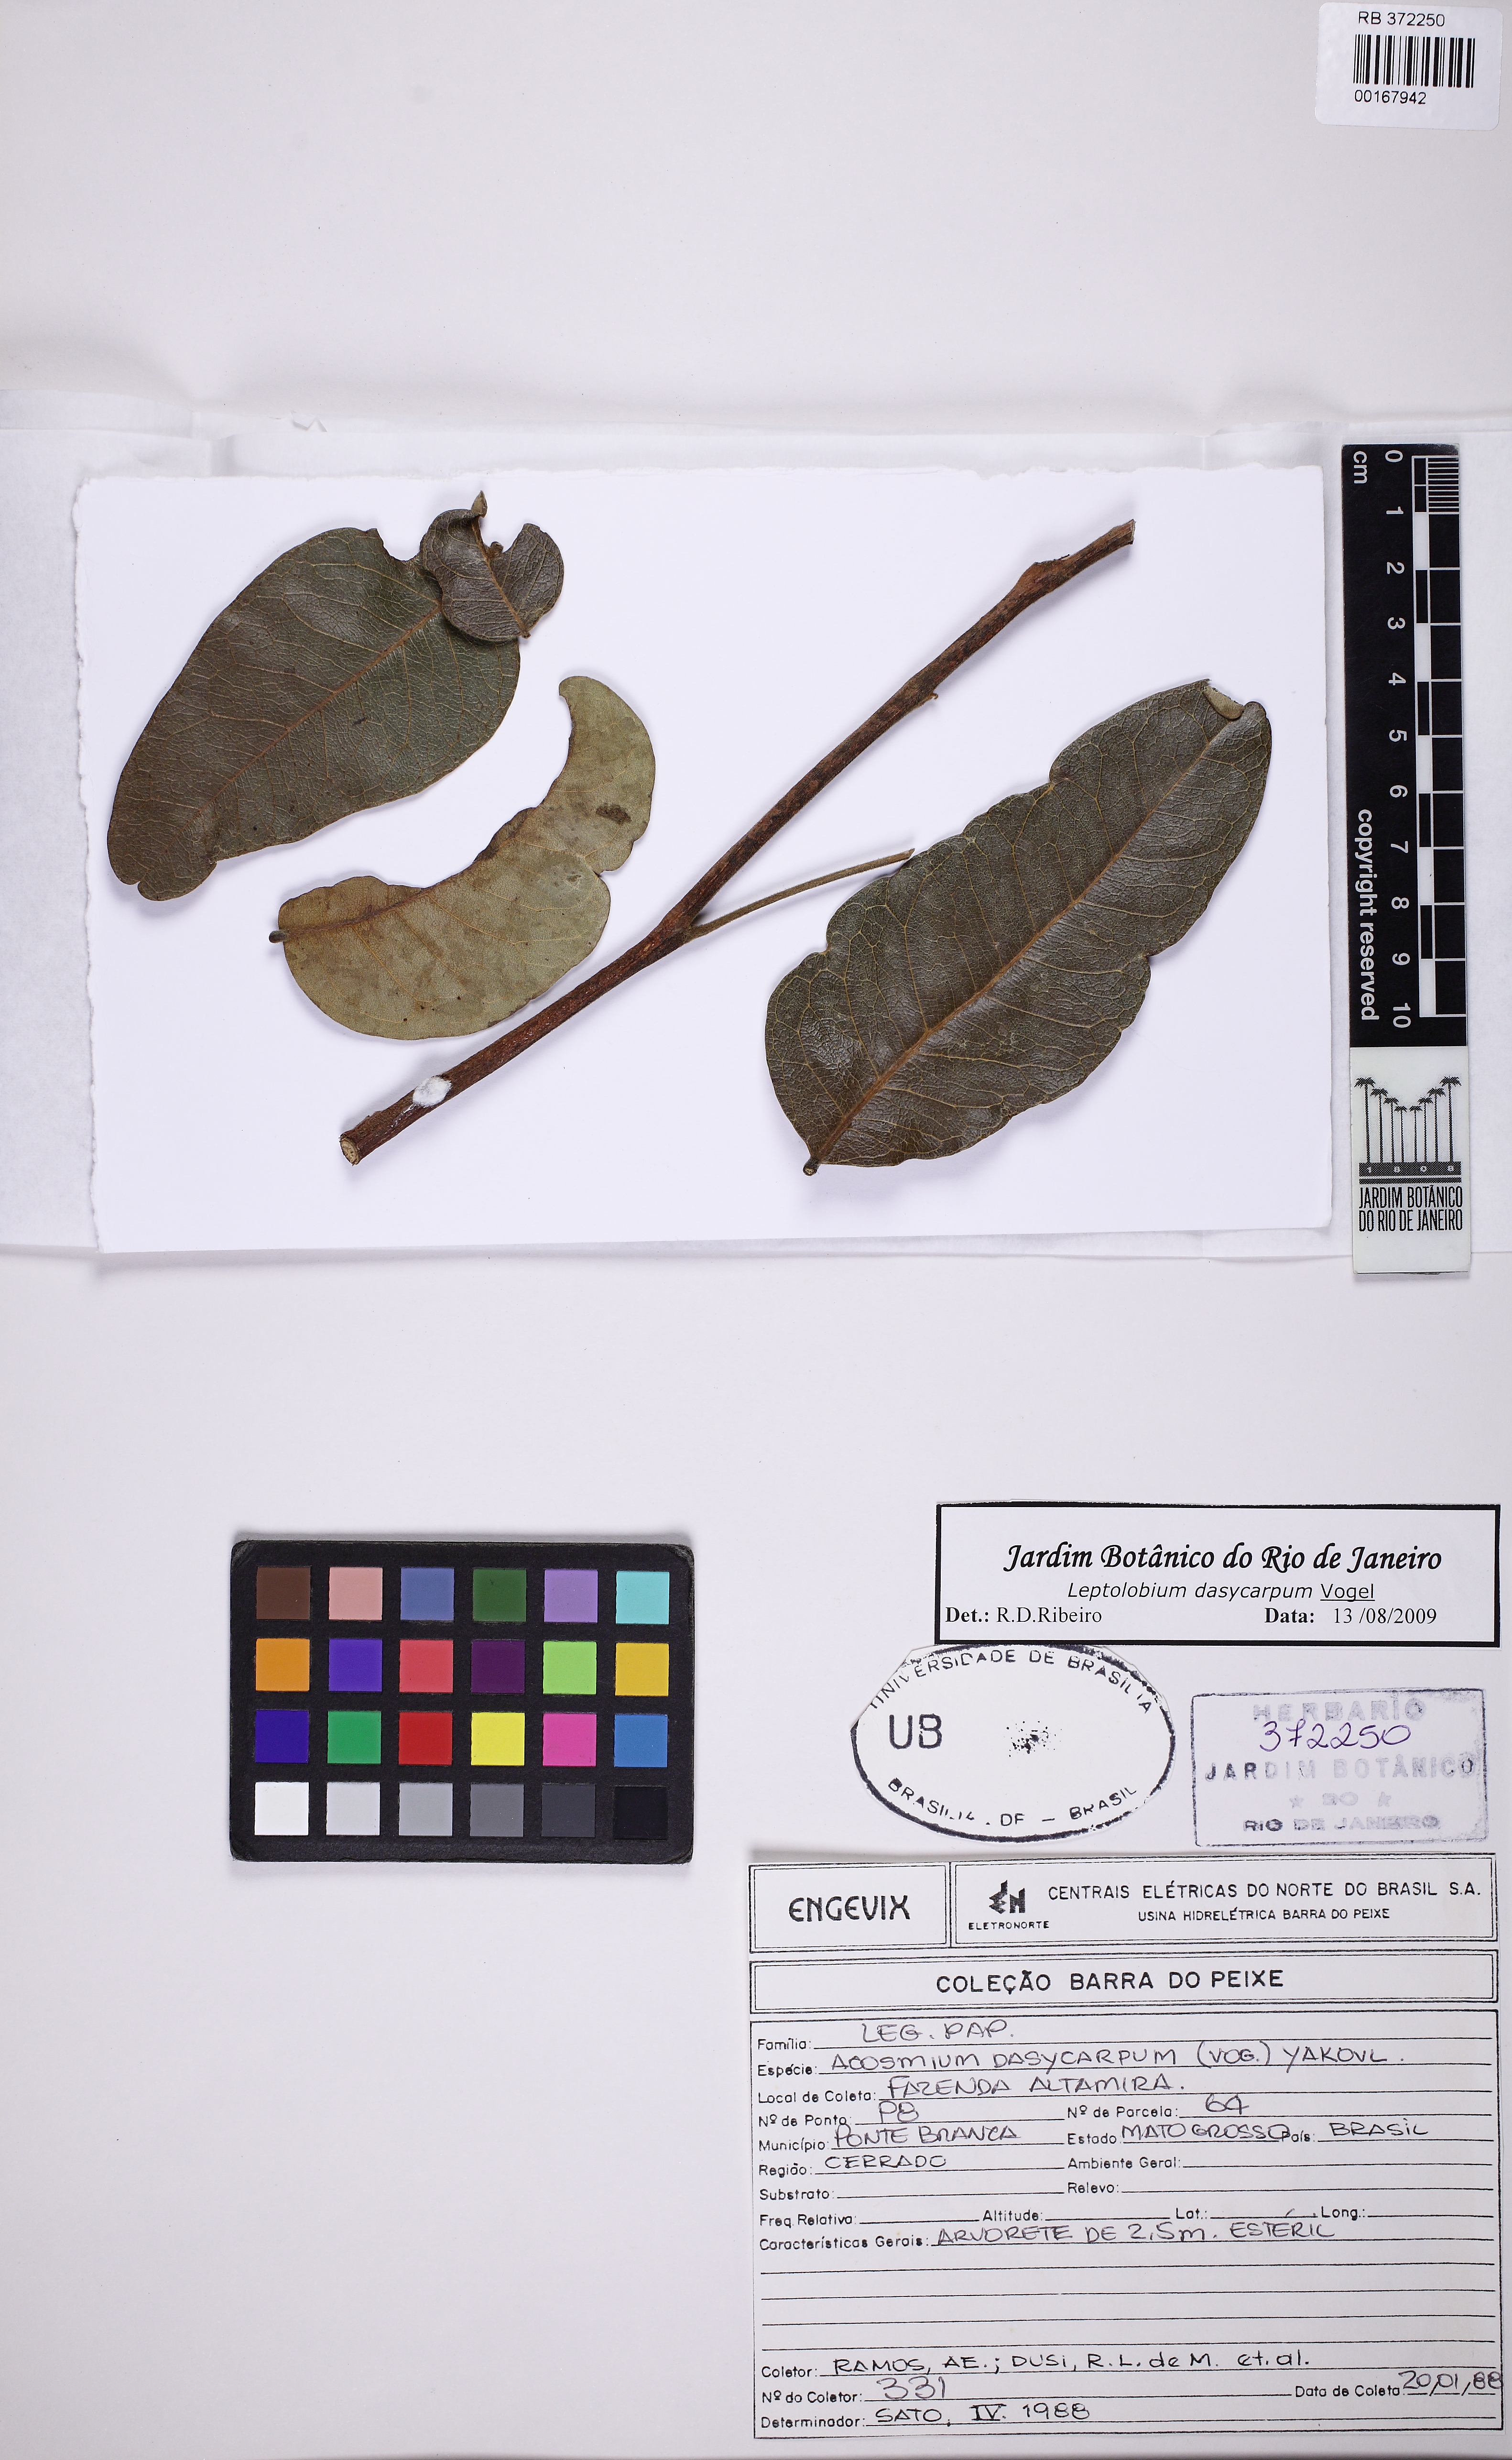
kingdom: Plantae
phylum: Tracheophyta
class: Magnoliopsida
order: Fabales
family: Fabaceae
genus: Leptolobium
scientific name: Leptolobium dasycarpum
